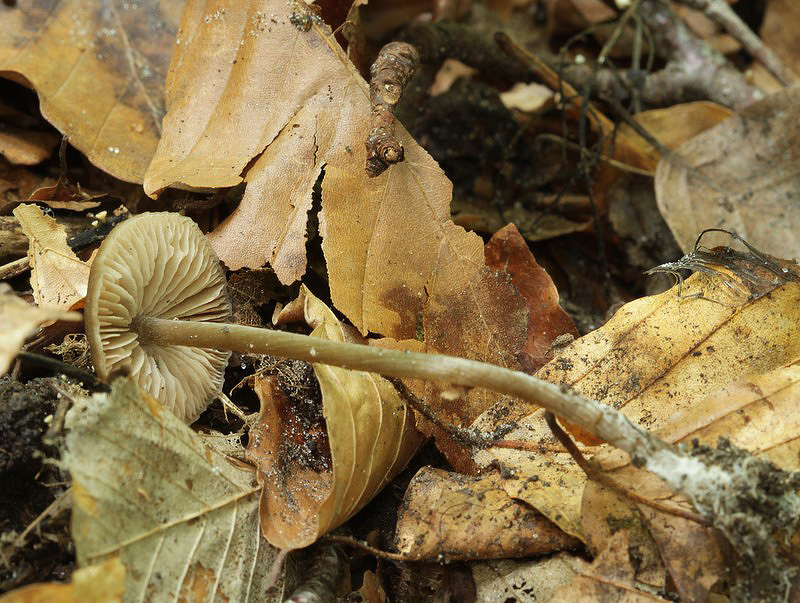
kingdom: Fungi
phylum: Basidiomycota
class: Agaricomycetes
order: Agaricales
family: Entolomataceae
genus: Entoloma
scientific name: Entoloma hebes
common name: krat-rødblad
